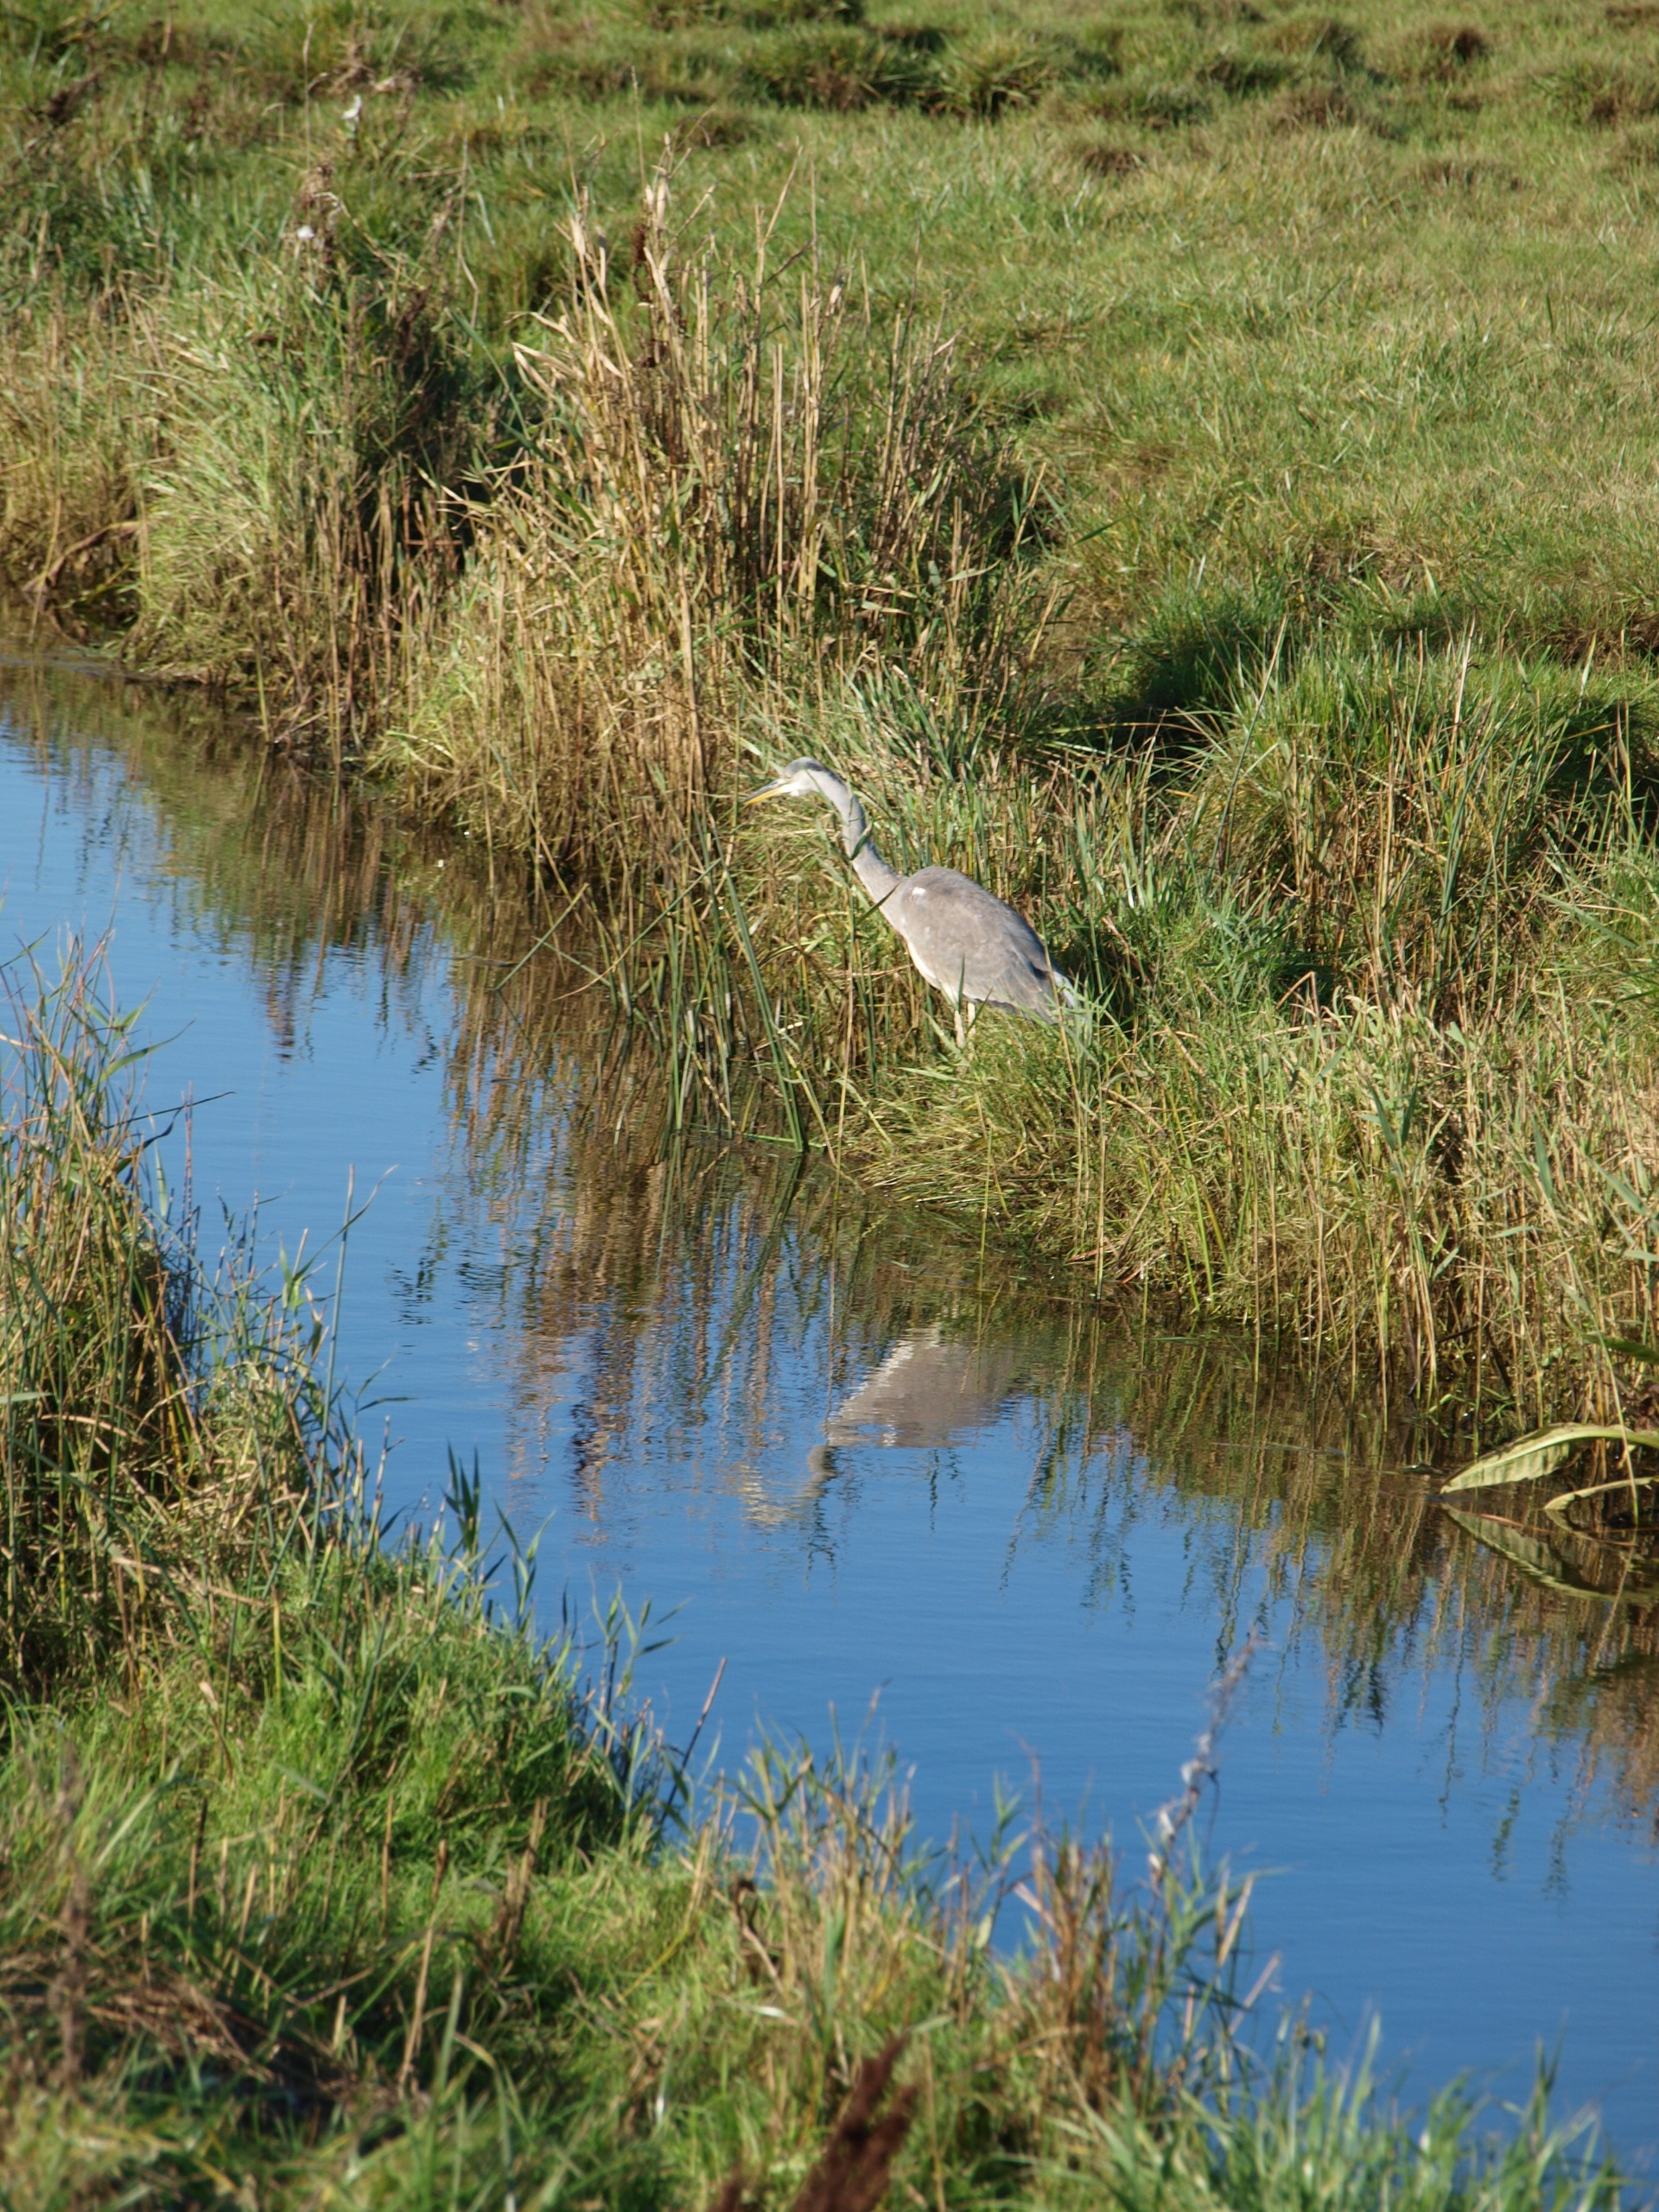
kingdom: Animalia
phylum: Chordata
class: Aves
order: Pelecaniformes
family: Ardeidae
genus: Ardea
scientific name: Ardea cinerea
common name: Fiskehejre
